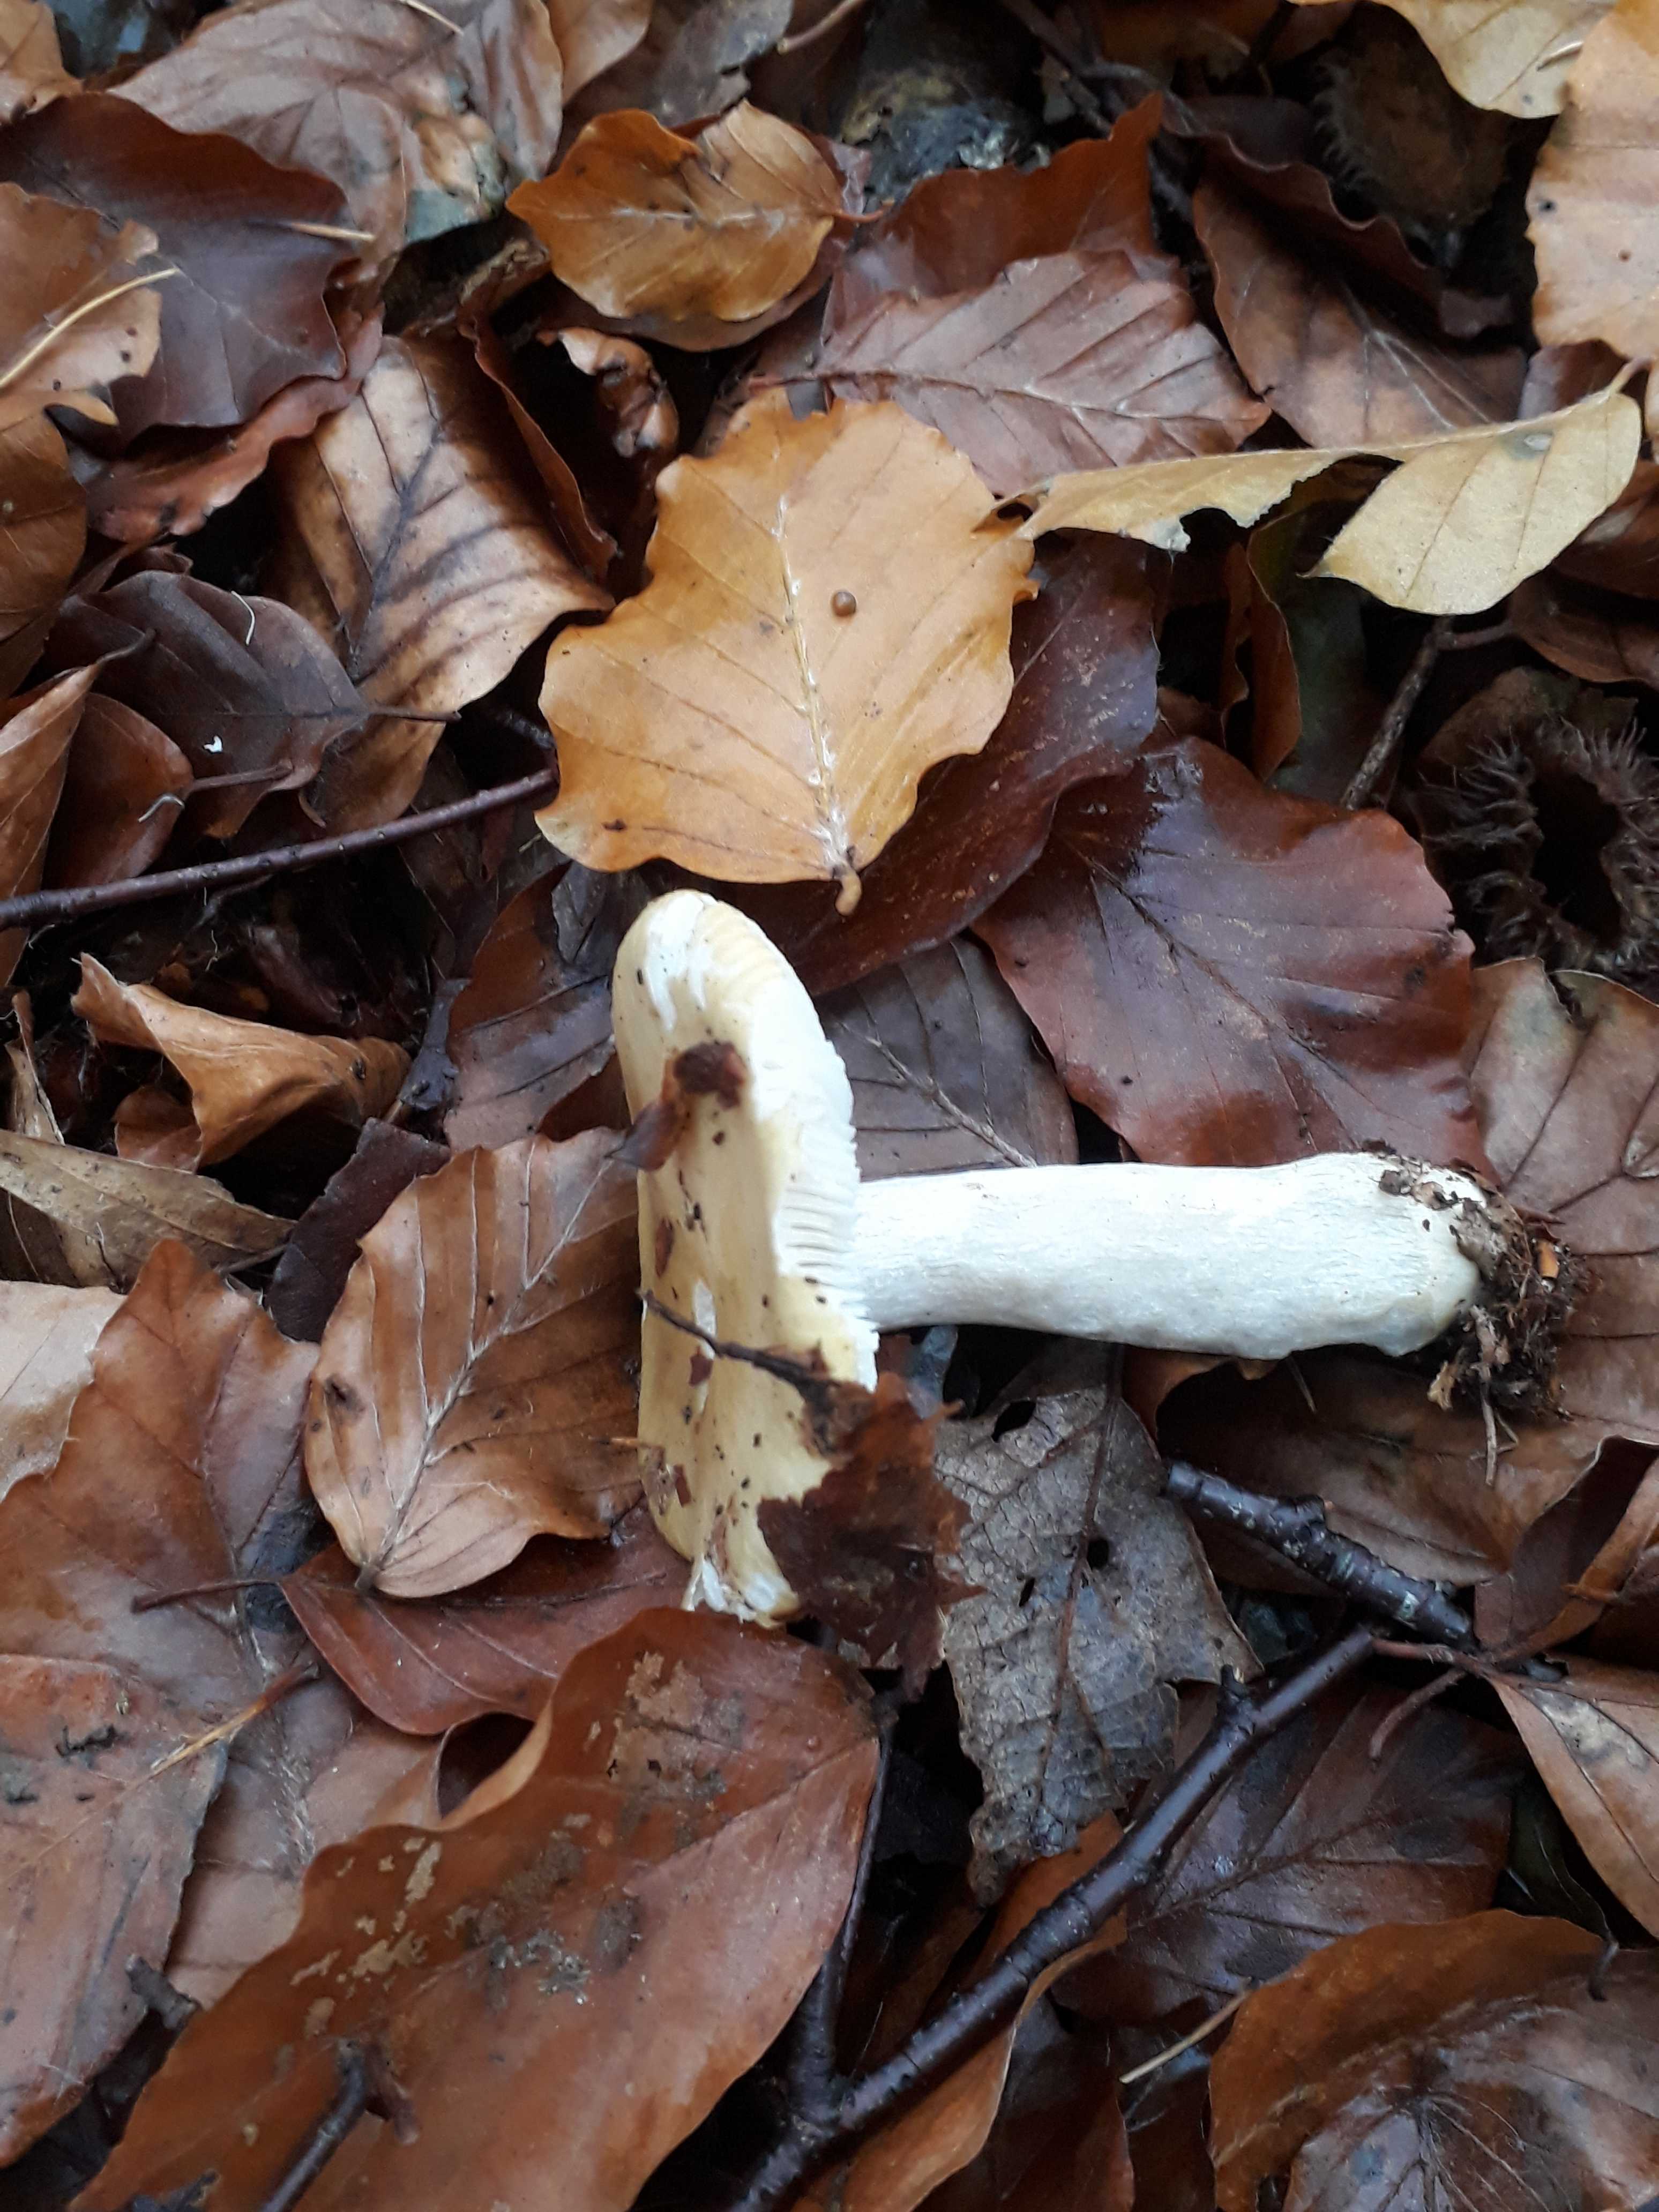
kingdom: Fungi
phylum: Basidiomycota
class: Agaricomycetes
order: Russulales
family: Russulaceae
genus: Russula
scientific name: Russula ochroleuca
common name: okkergul skørhat
